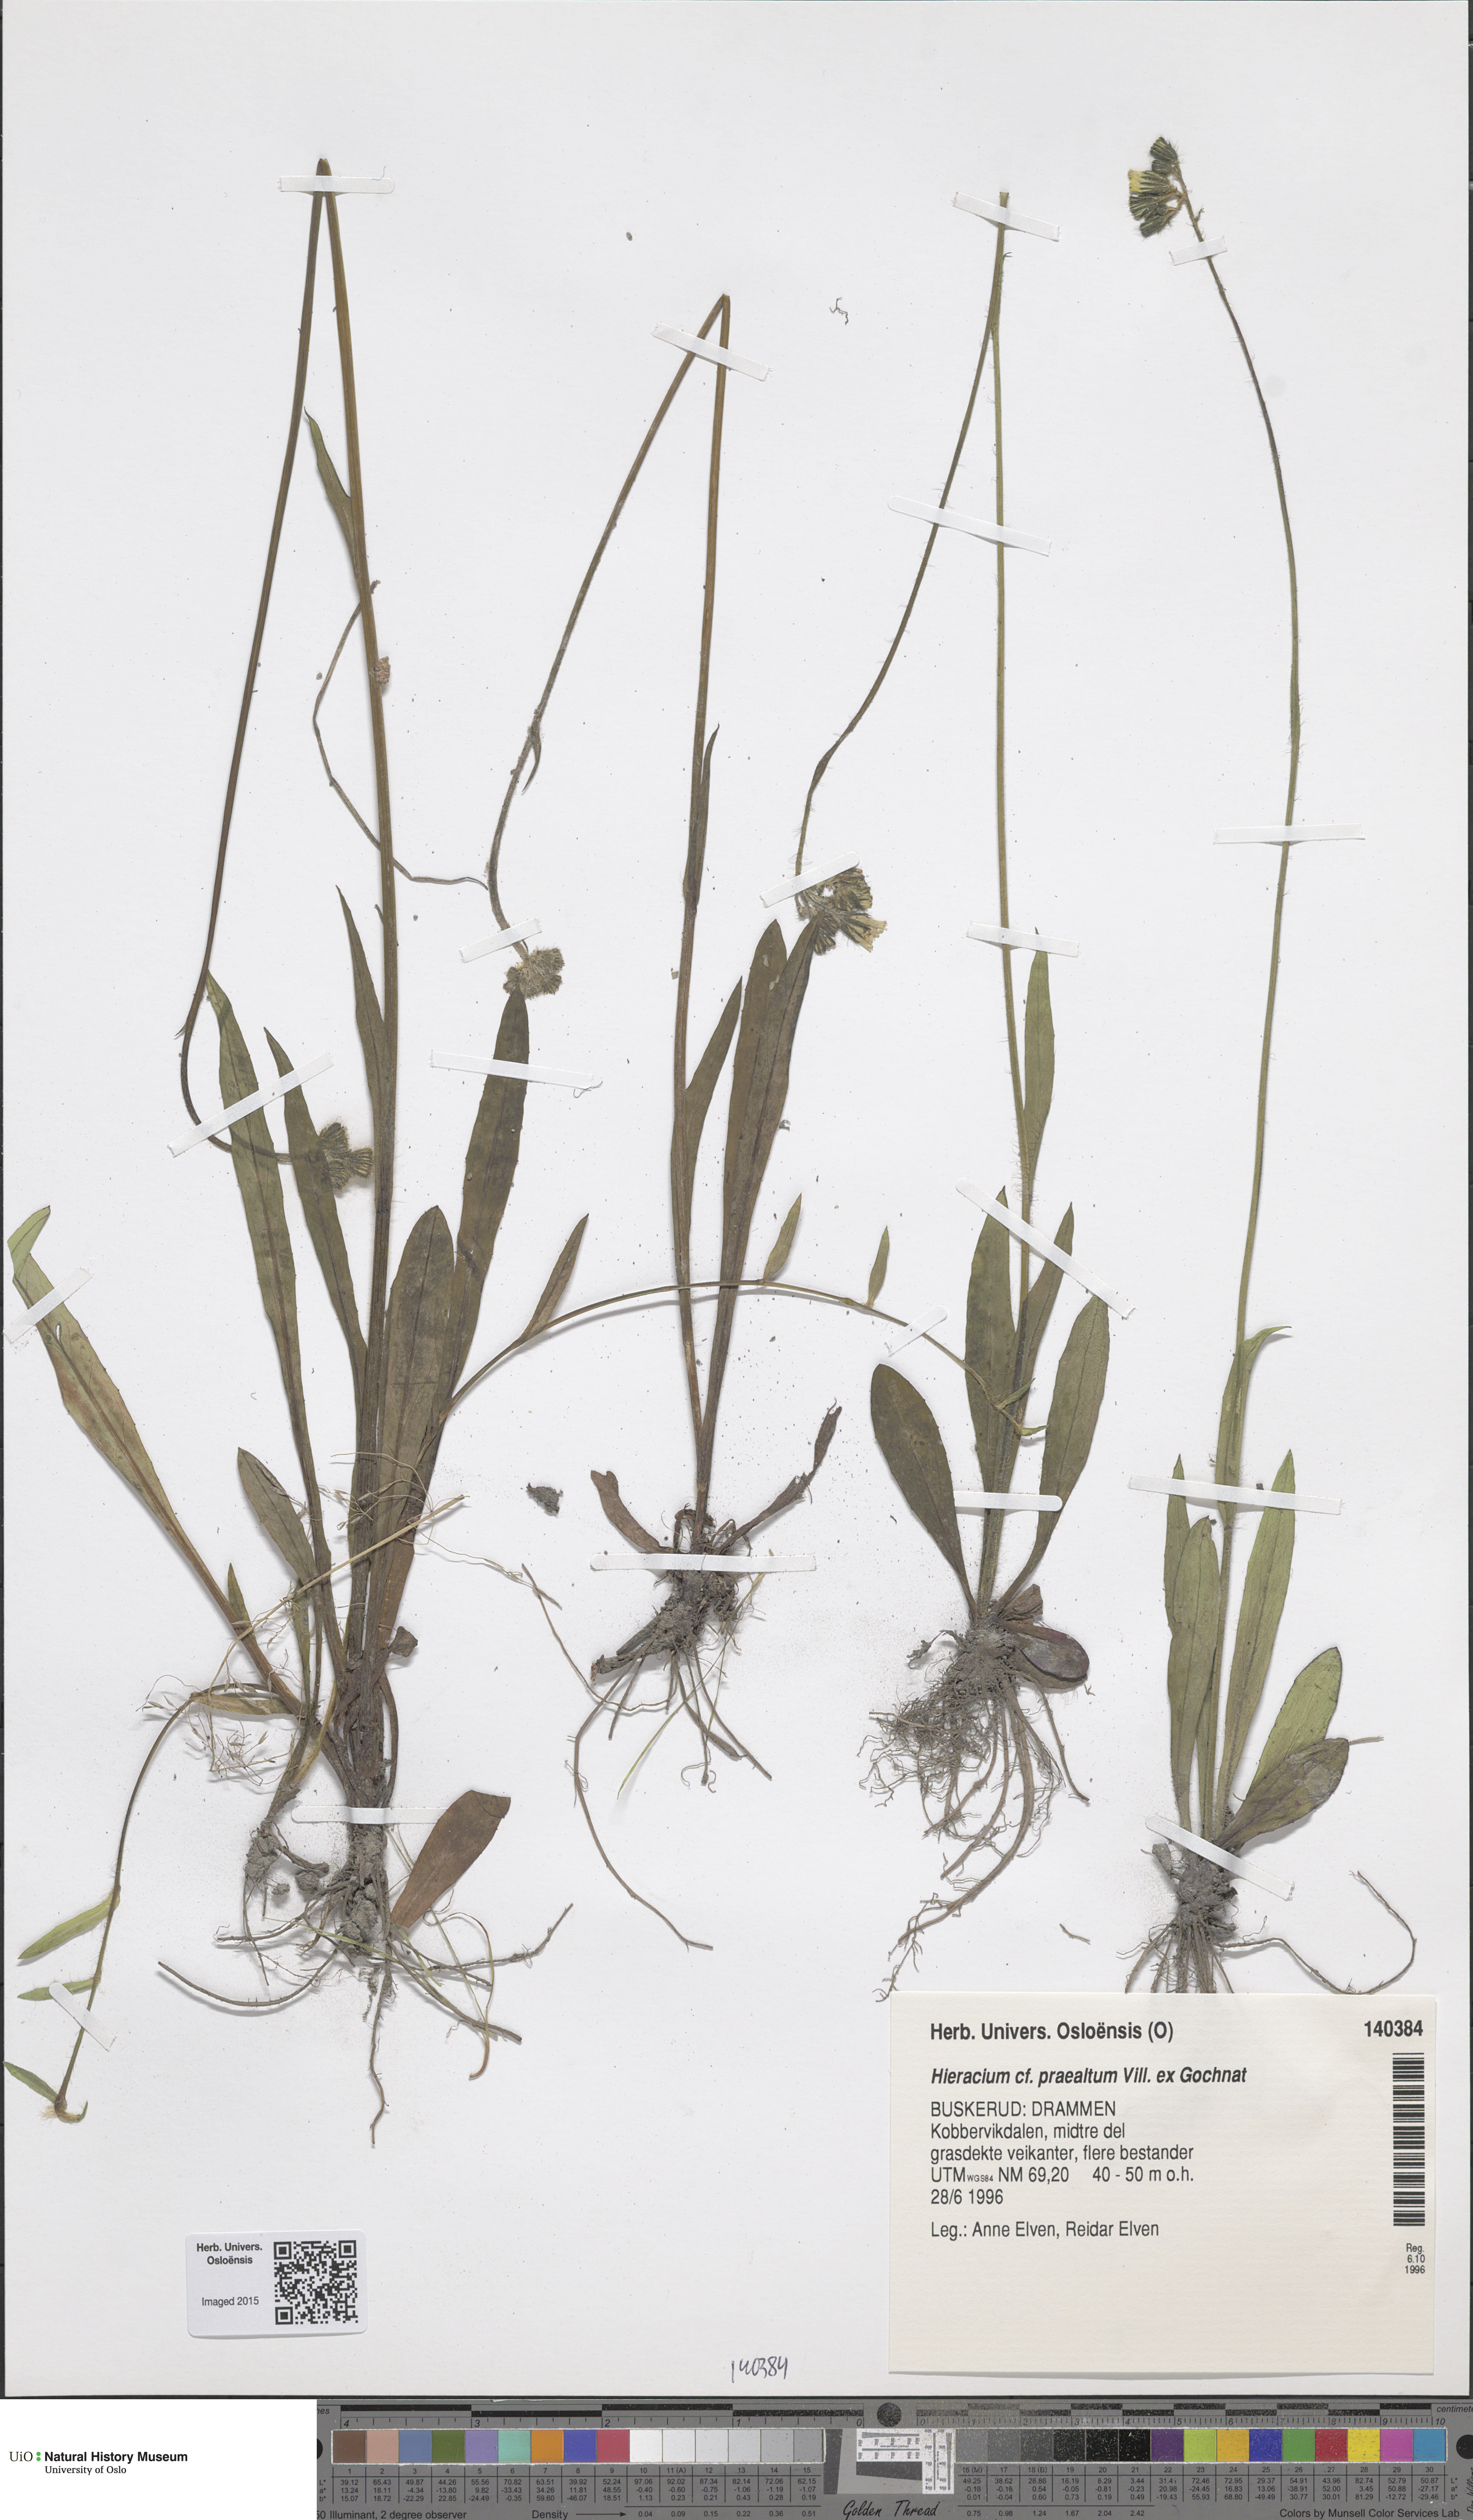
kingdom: Plantae
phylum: Tracheophyta
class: Magnoliopsida
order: Asterales
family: Asteraceae
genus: Pilosella
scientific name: Pilosella piloselloides
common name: Glaucous king-devil
